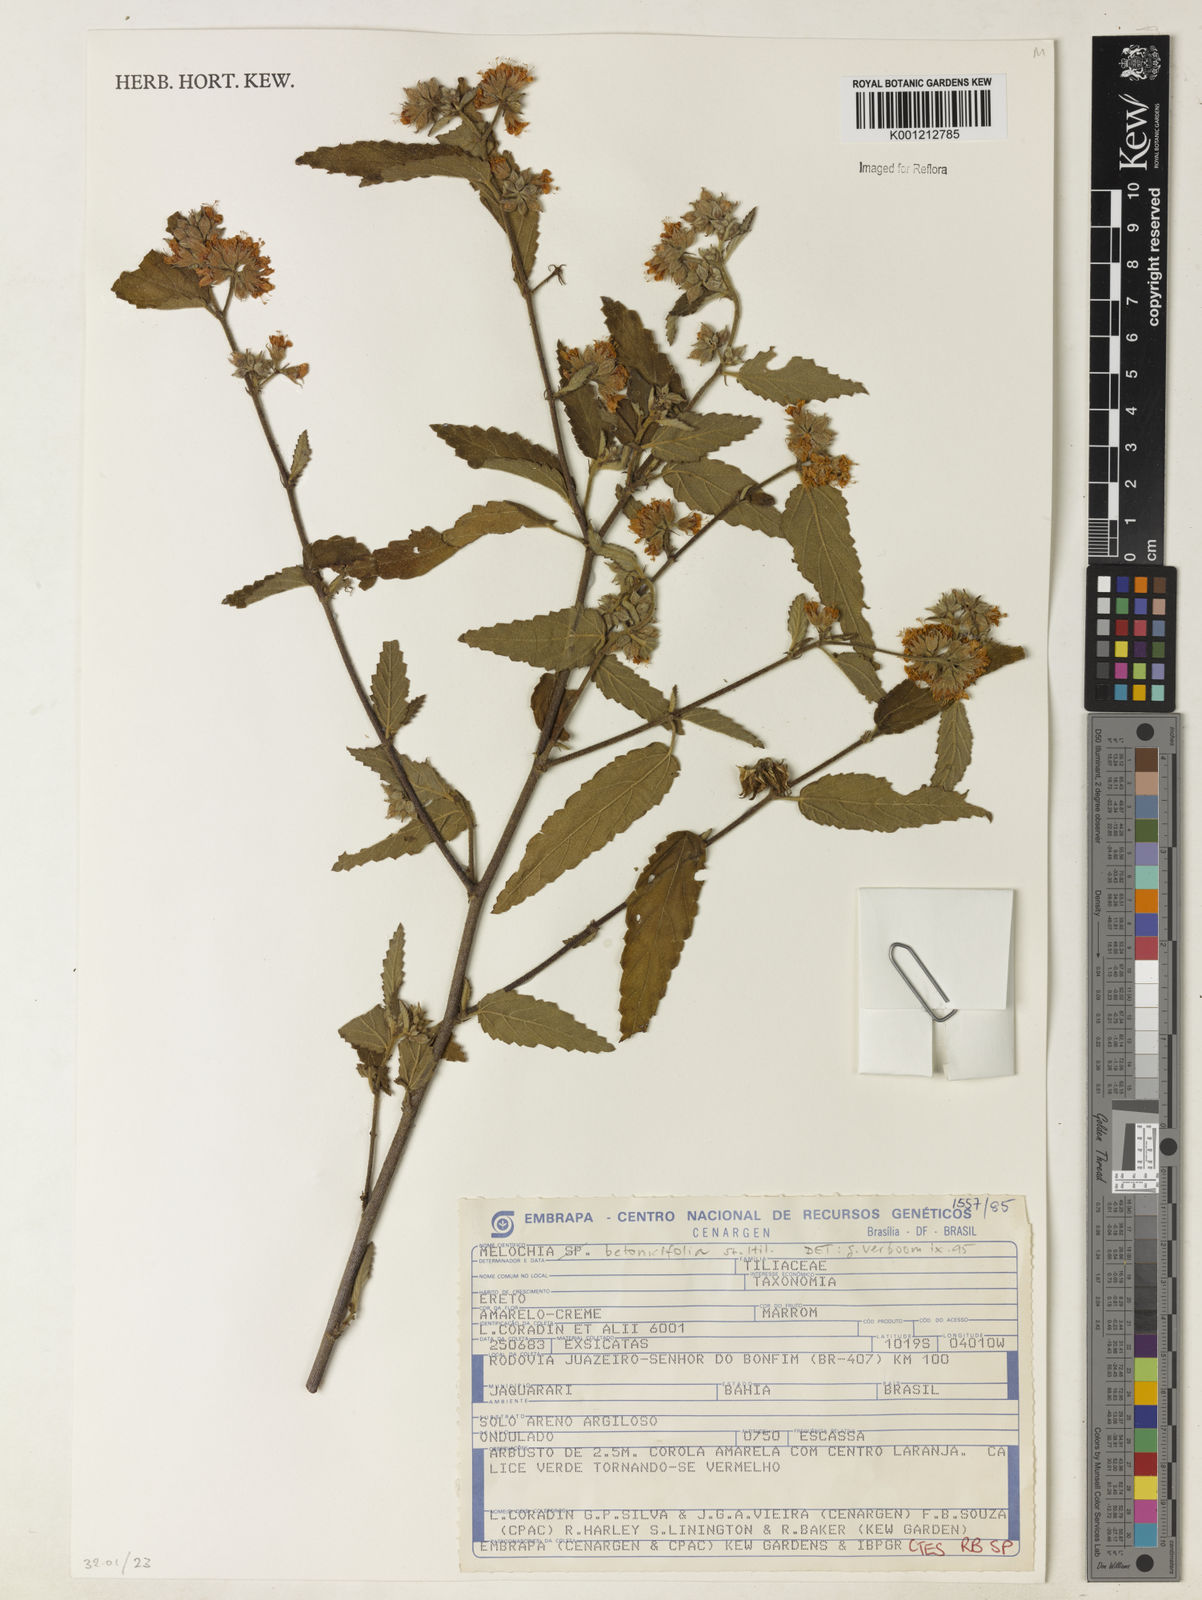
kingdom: Plantae
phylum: Tracheophyta
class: Magnoliopsida
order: Malvales
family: Malvaceae
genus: Melochia
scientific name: Melochia betonicifolia
